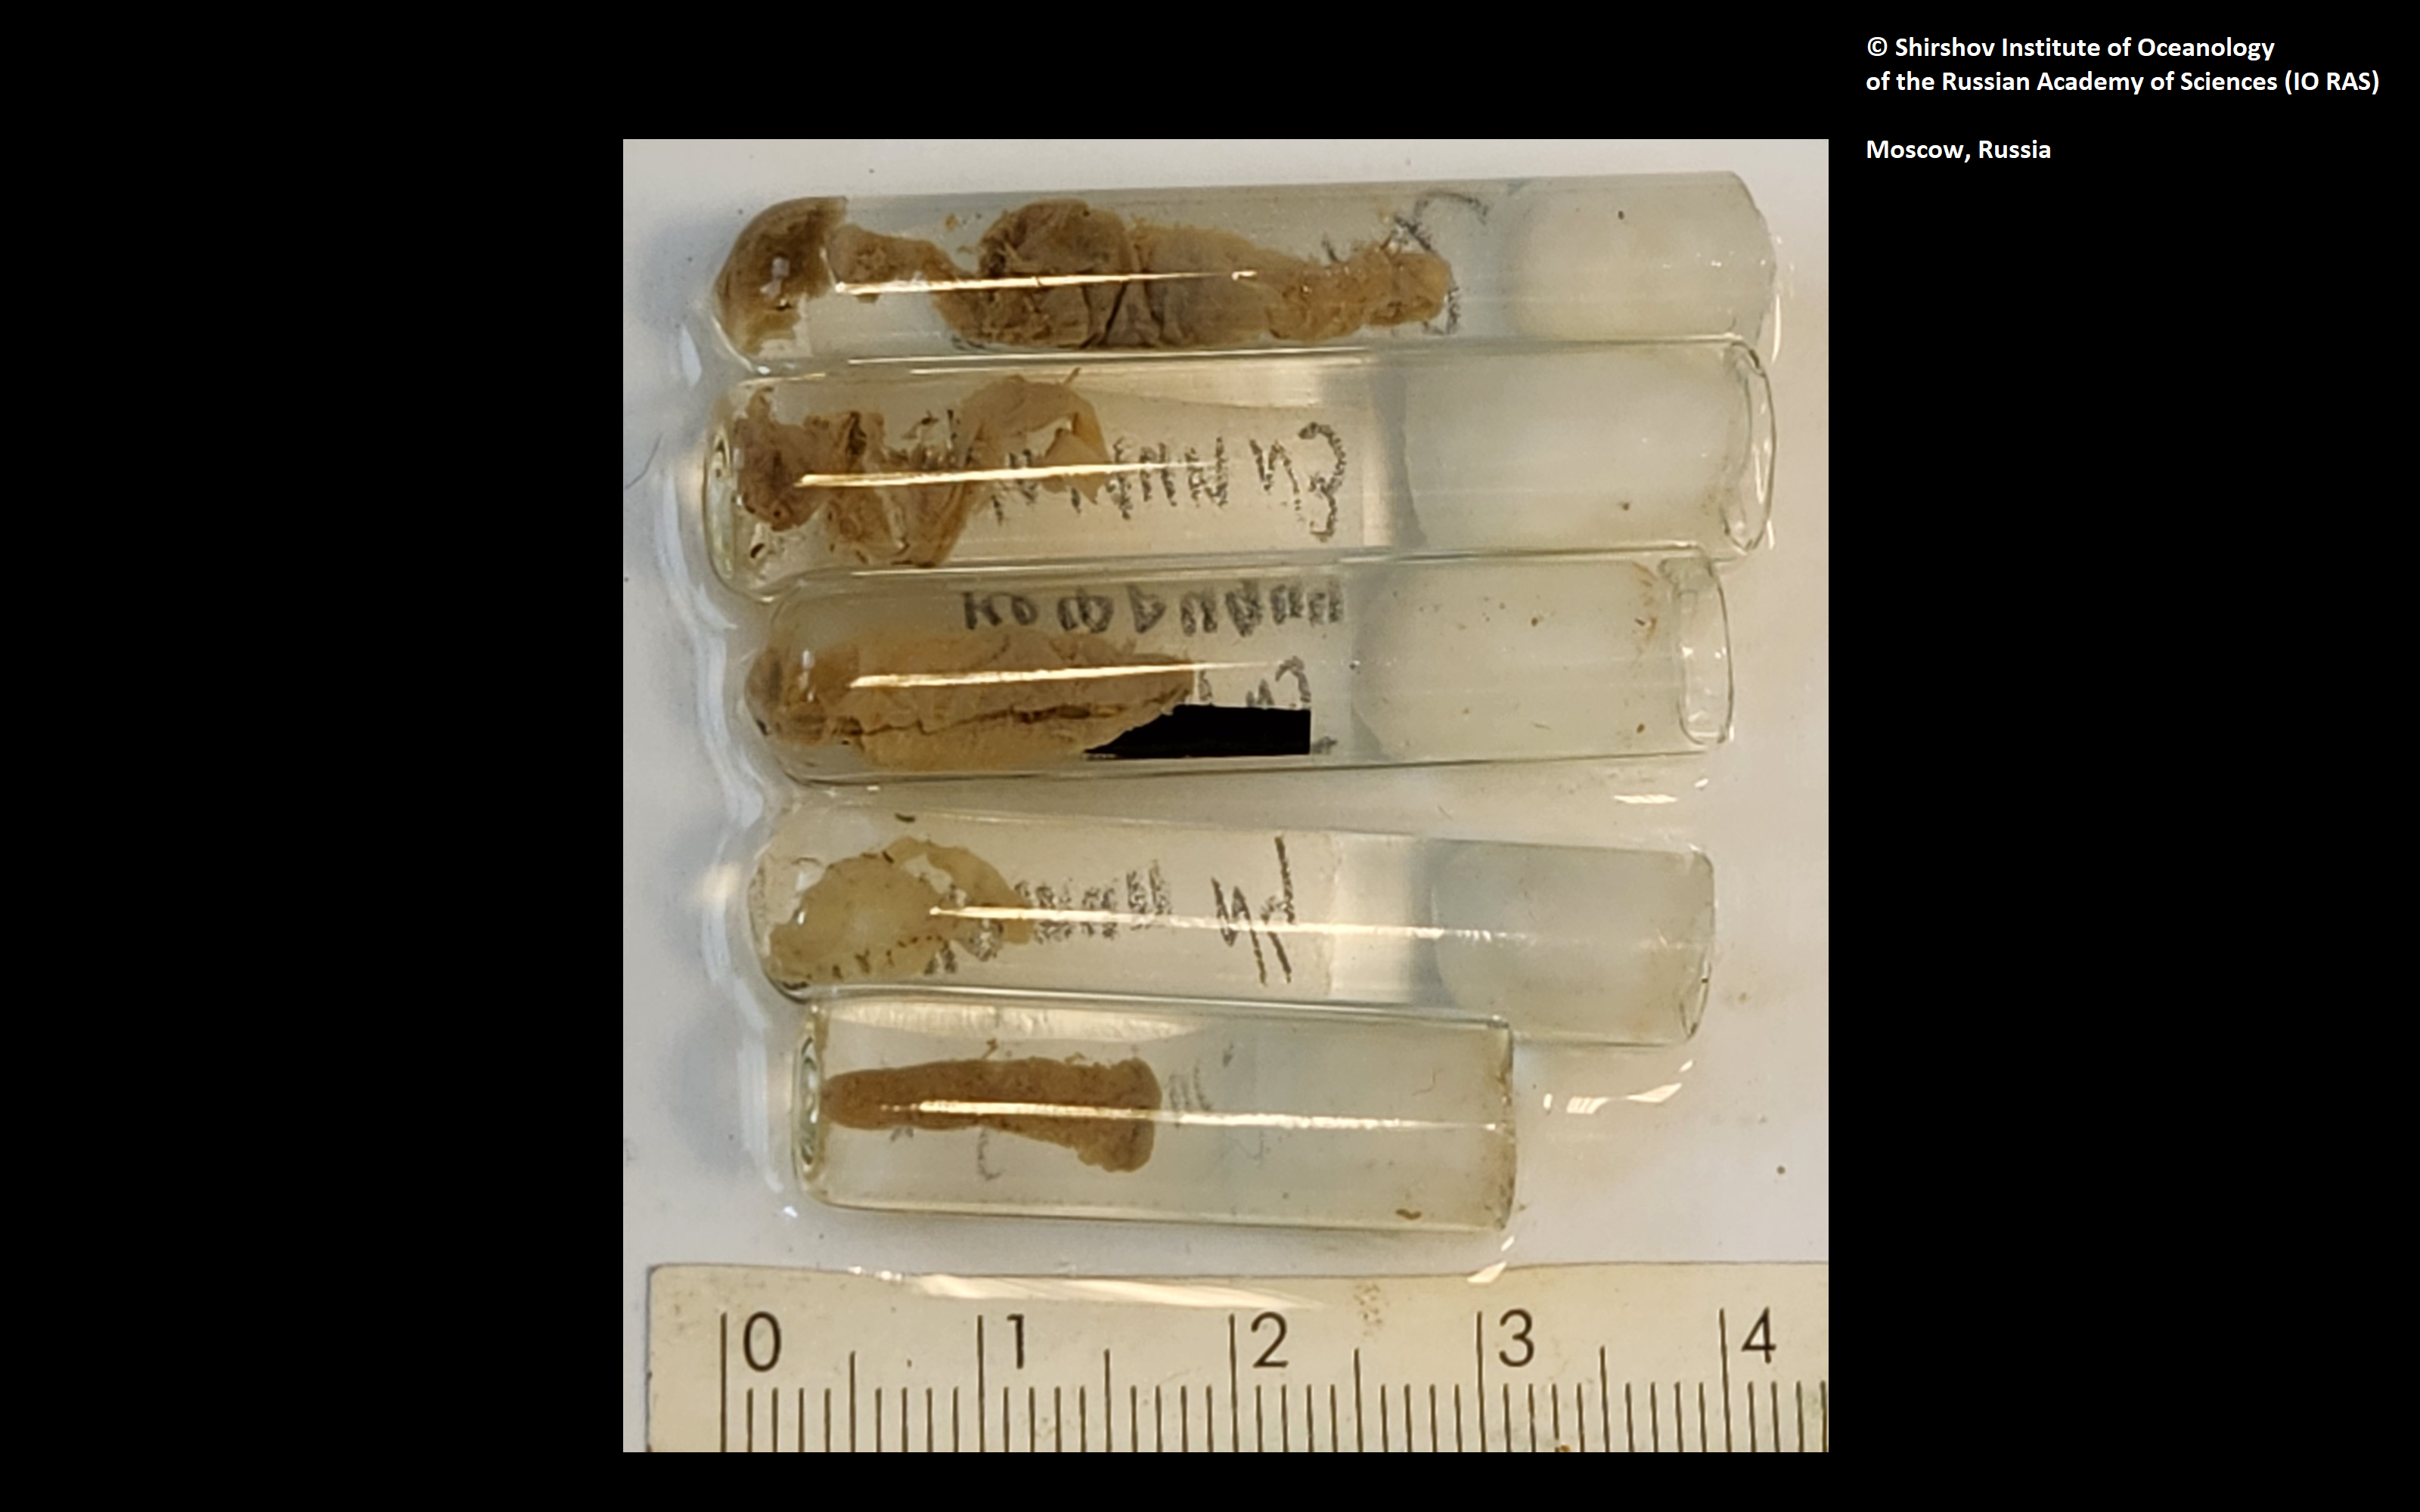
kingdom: Animalia
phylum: Annelida
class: Polychaeta
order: Echiuroidea
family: Bonelliidae
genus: Vitjazema
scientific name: Vitjazema planirostris
